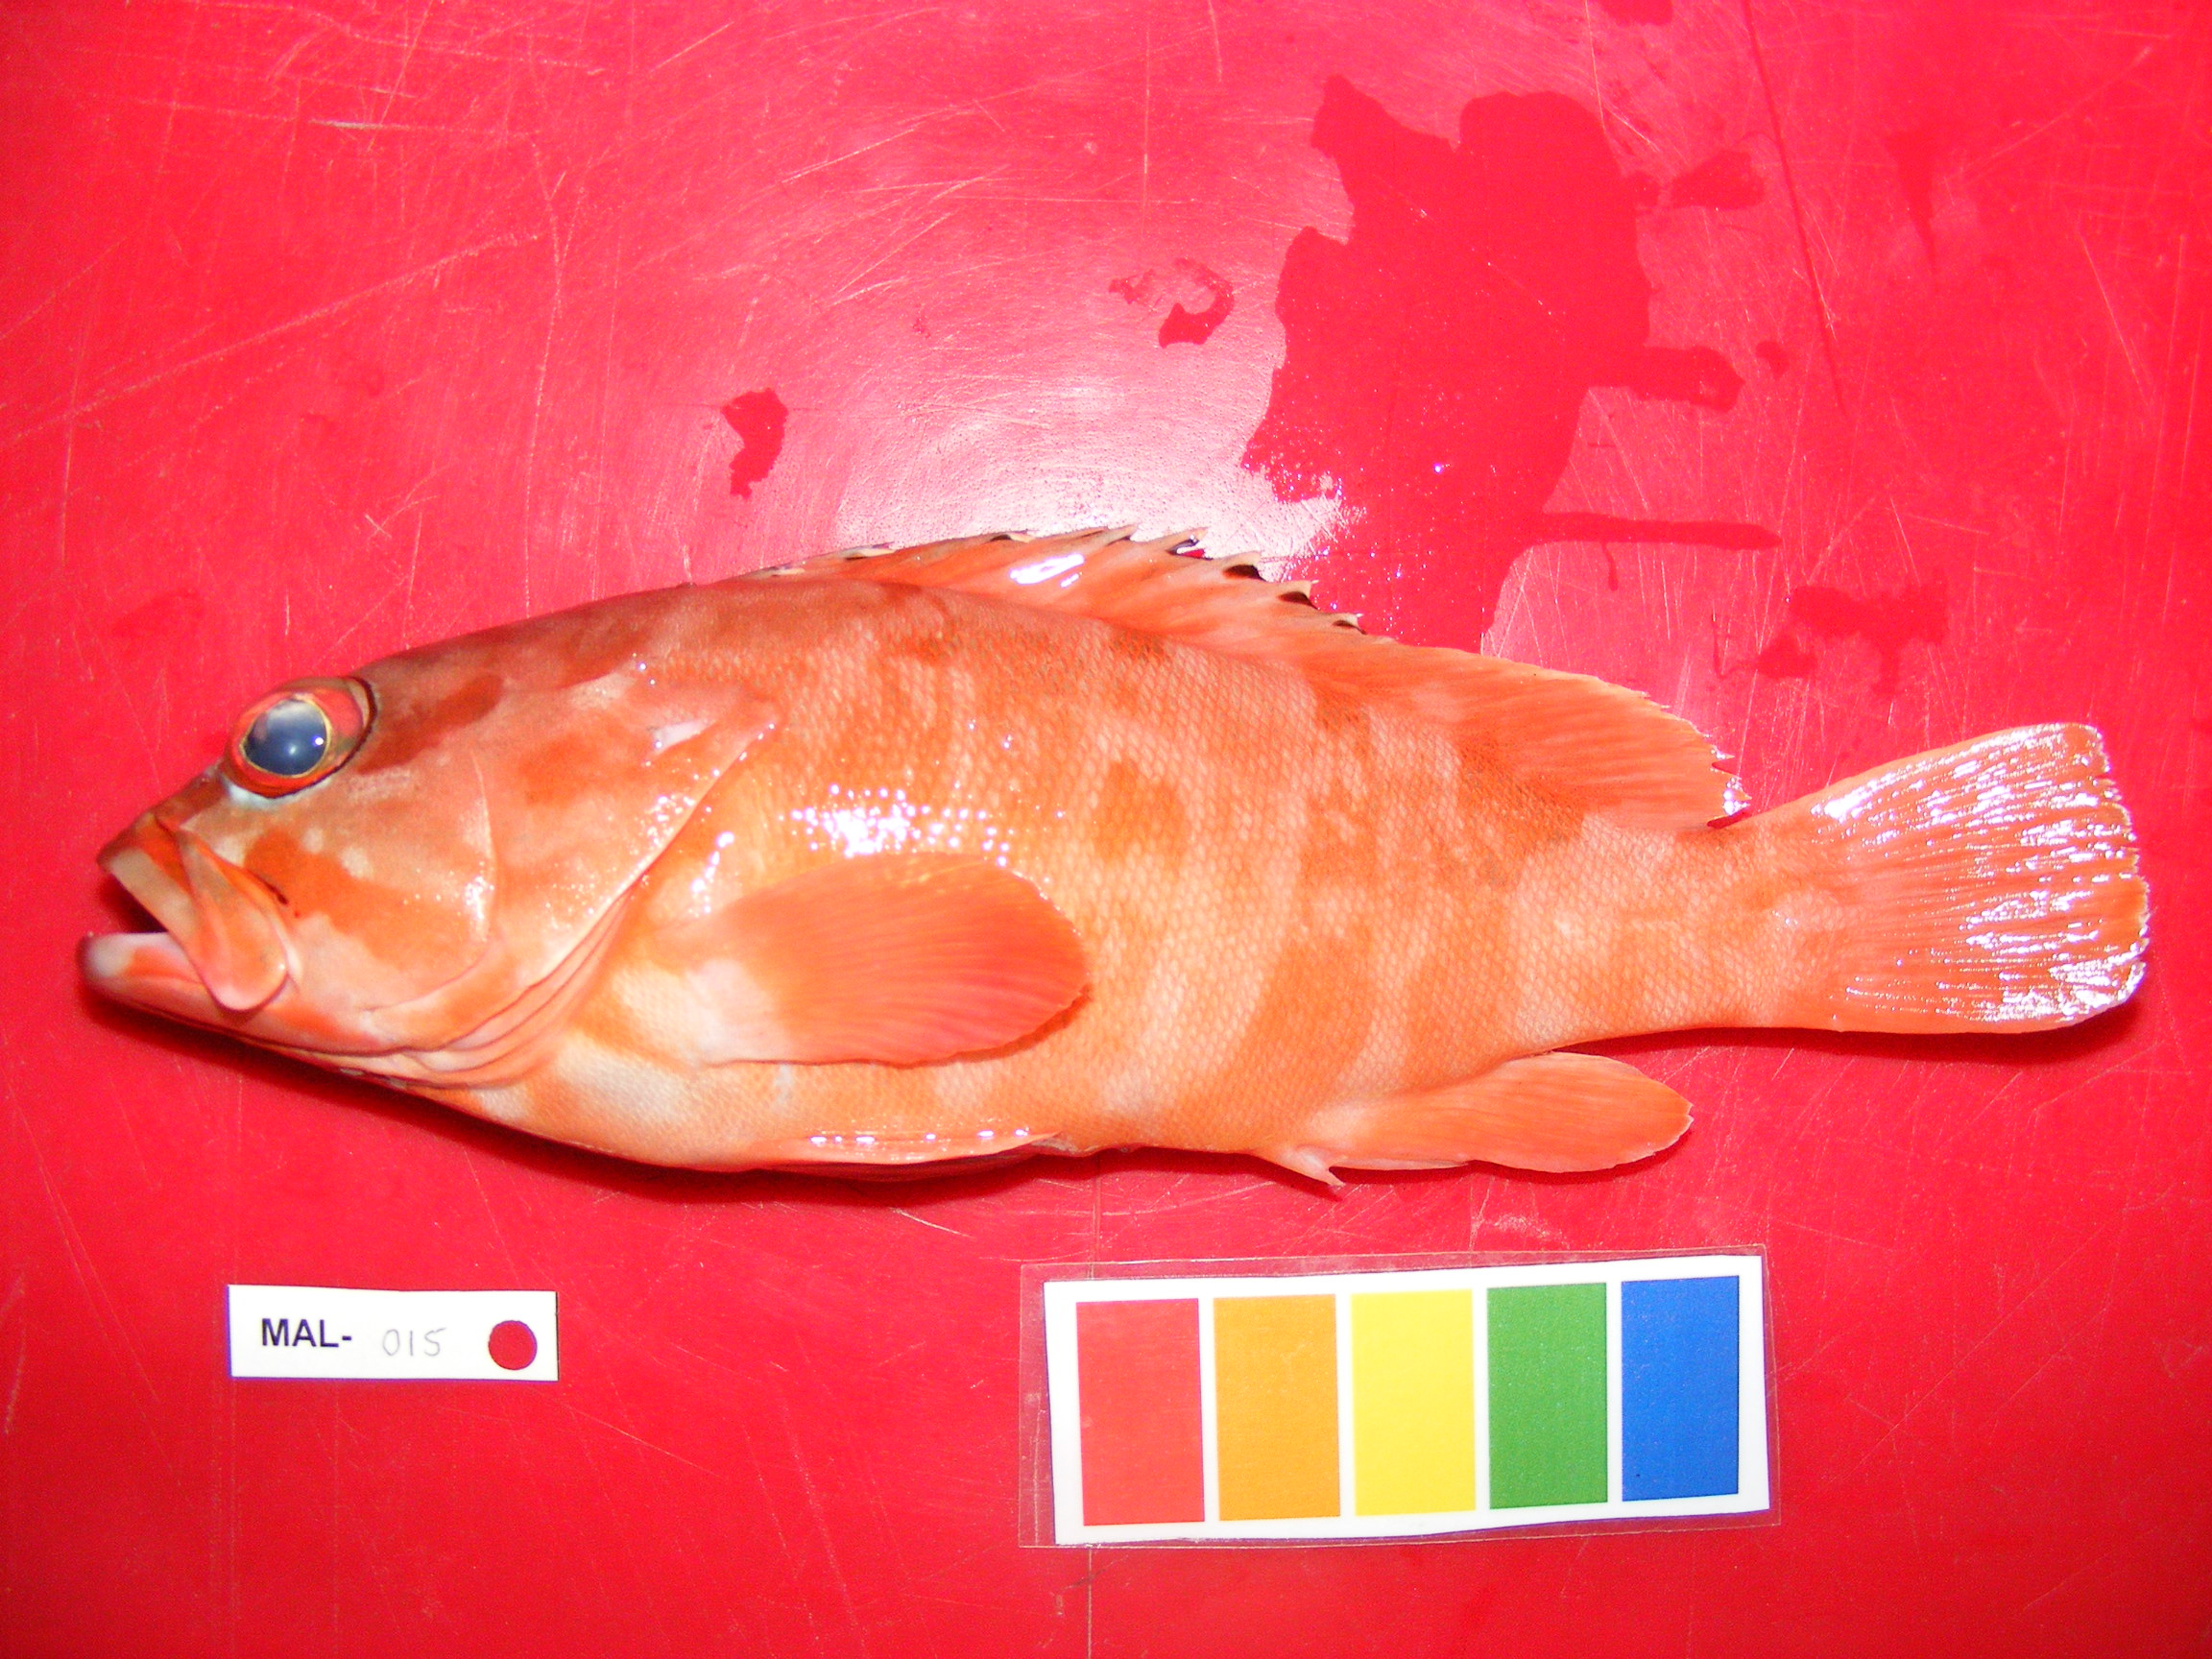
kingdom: Animalia
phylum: Chordata
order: Perciformes
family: Serranidae
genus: Epinephelus
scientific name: Epinephelus fasciatus
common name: Blacktip grouper
